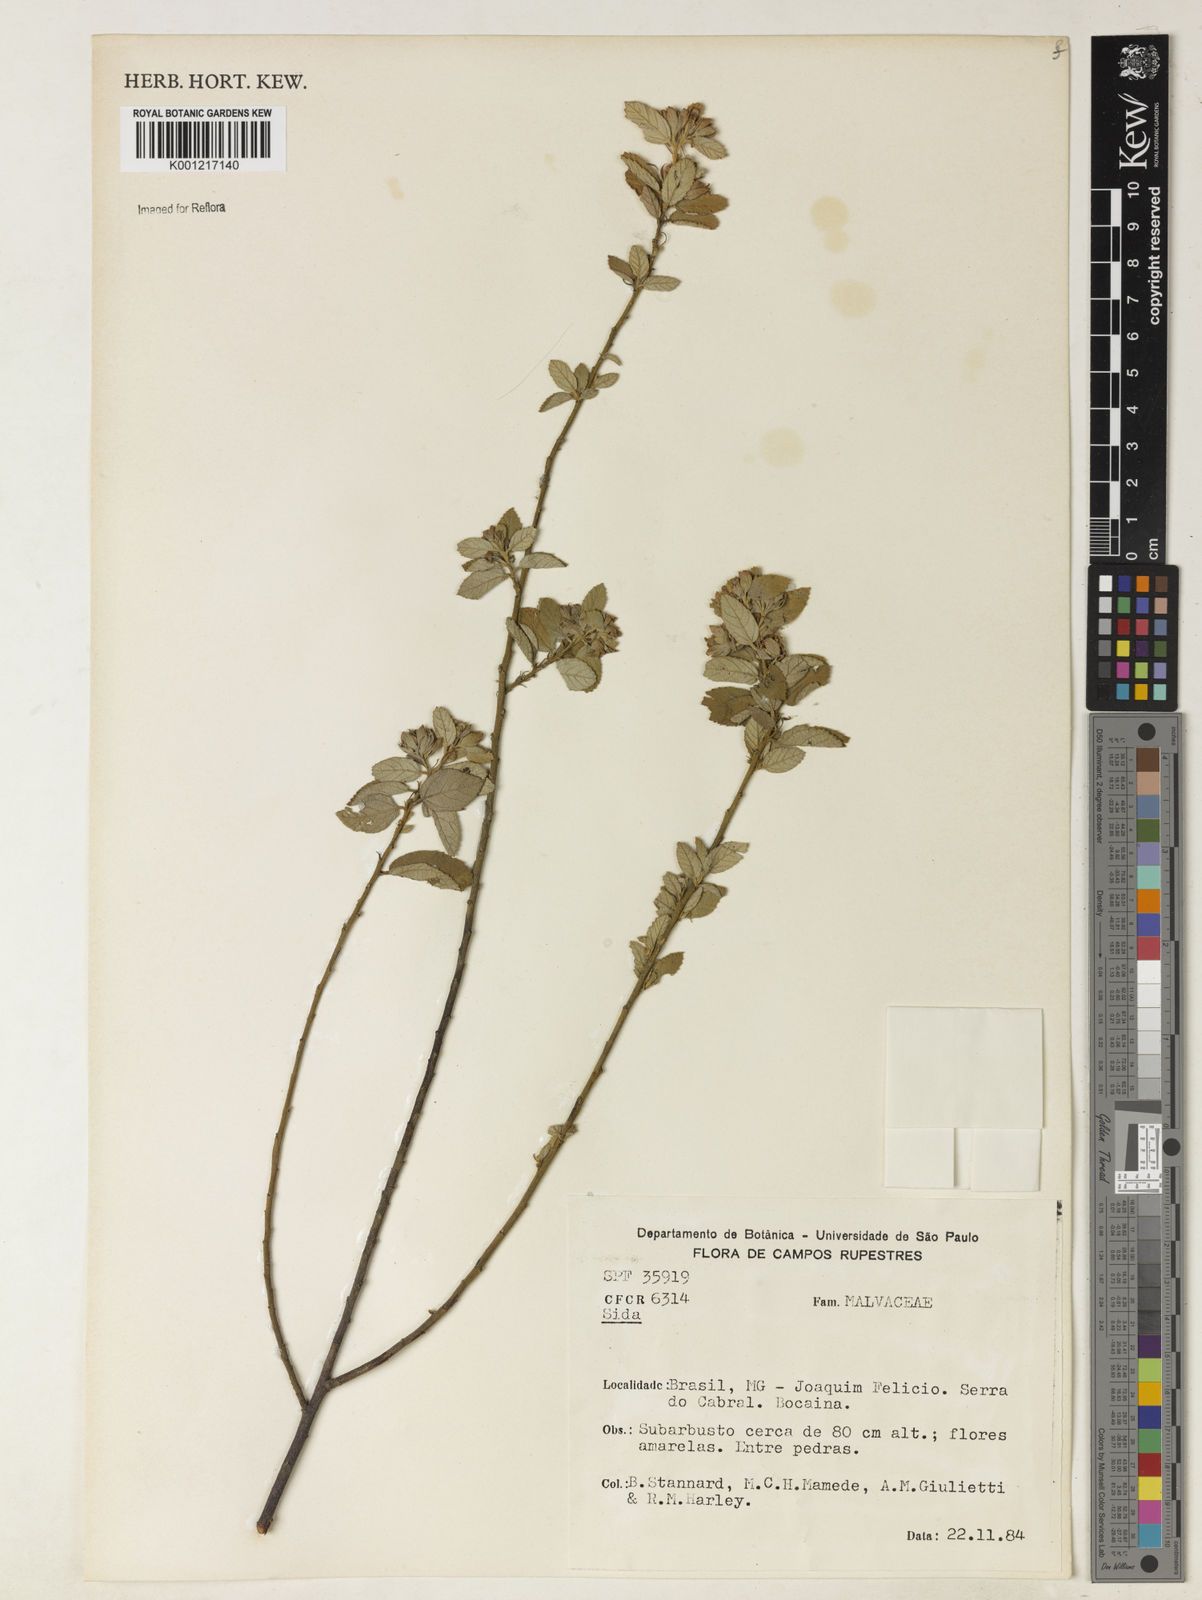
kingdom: Plantae
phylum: Tracheophyta
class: Magnoliopsida
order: Malvales
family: Malvaceae
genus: Sida
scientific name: Sida
